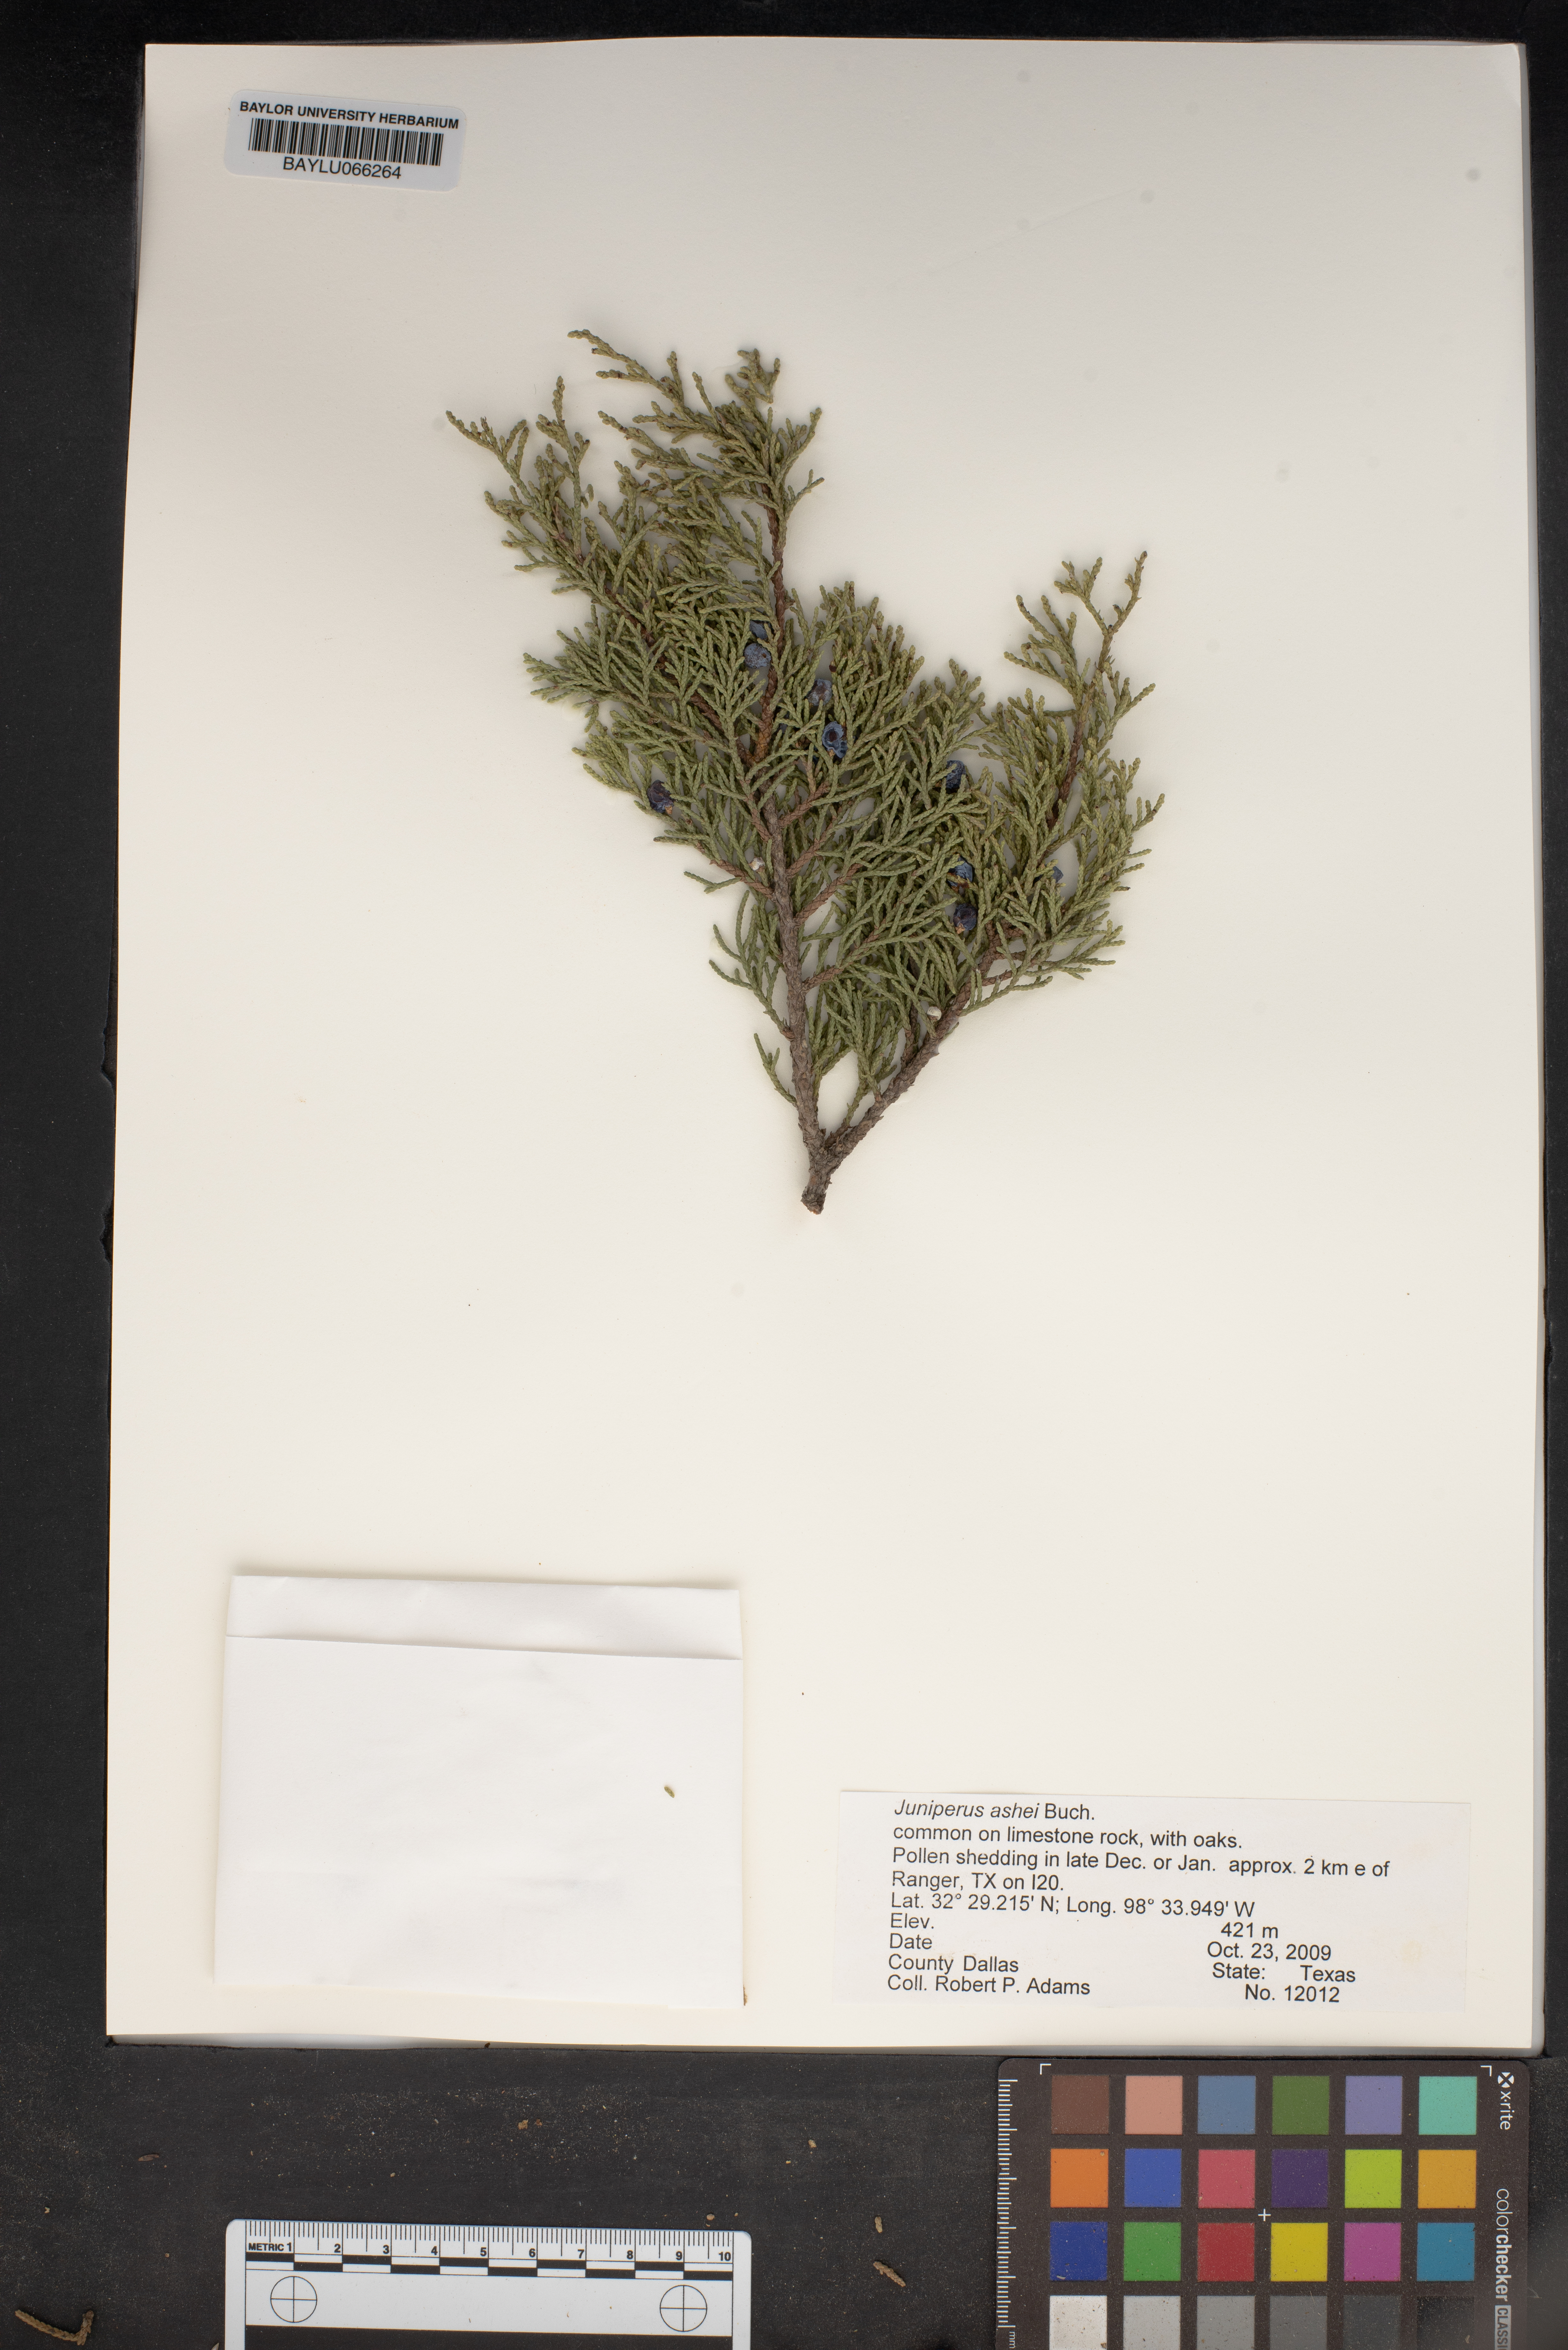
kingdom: Plantae
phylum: Tracheophyta
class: Pinopsida
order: Pinales
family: Cupressaceae
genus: Juniperus
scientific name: Juniperus ashei
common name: Mexican juniper
